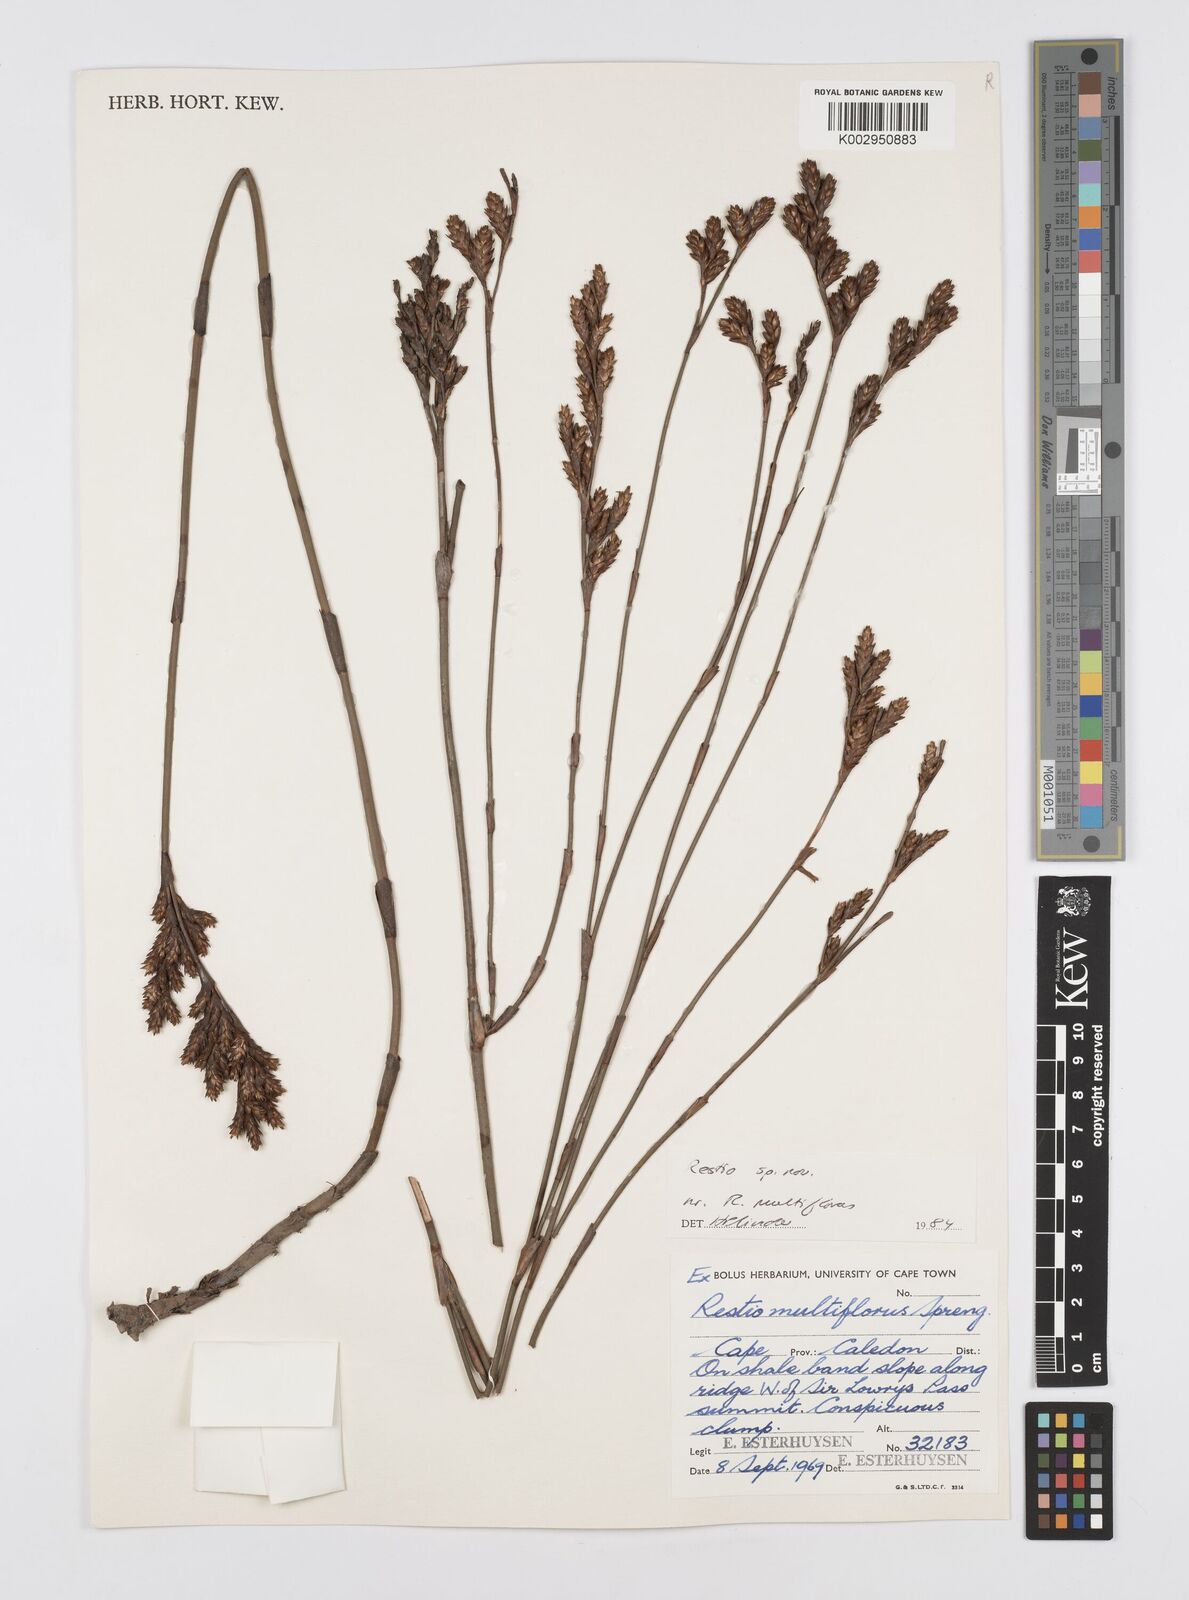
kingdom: Plantae
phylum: Tracheophyta
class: Liliopsida
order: Poales
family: Restionaceae
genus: Restio
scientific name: Restio degenerans
